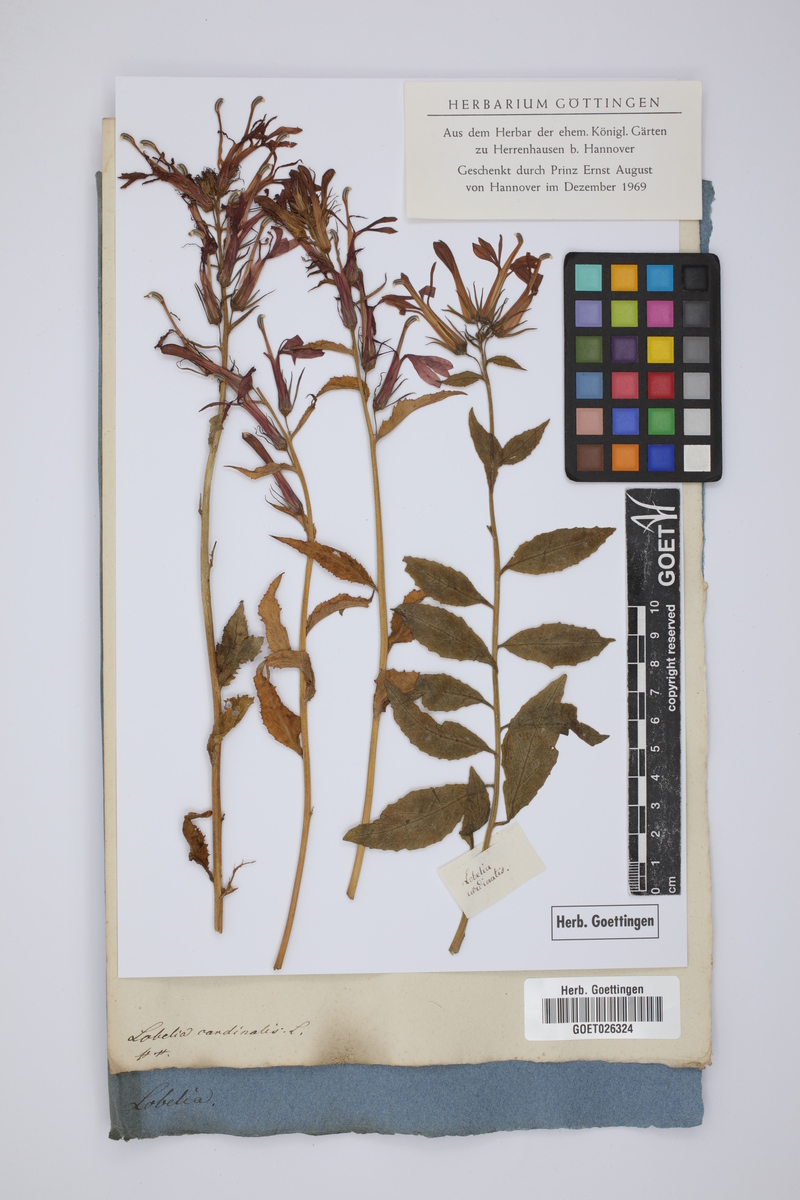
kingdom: Plantae
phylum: Tracheophyta
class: Magnoliopsida
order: Asterales
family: Campanulaceae
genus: Lobelia
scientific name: Lobelia cardinalis
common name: Cardinal flower
